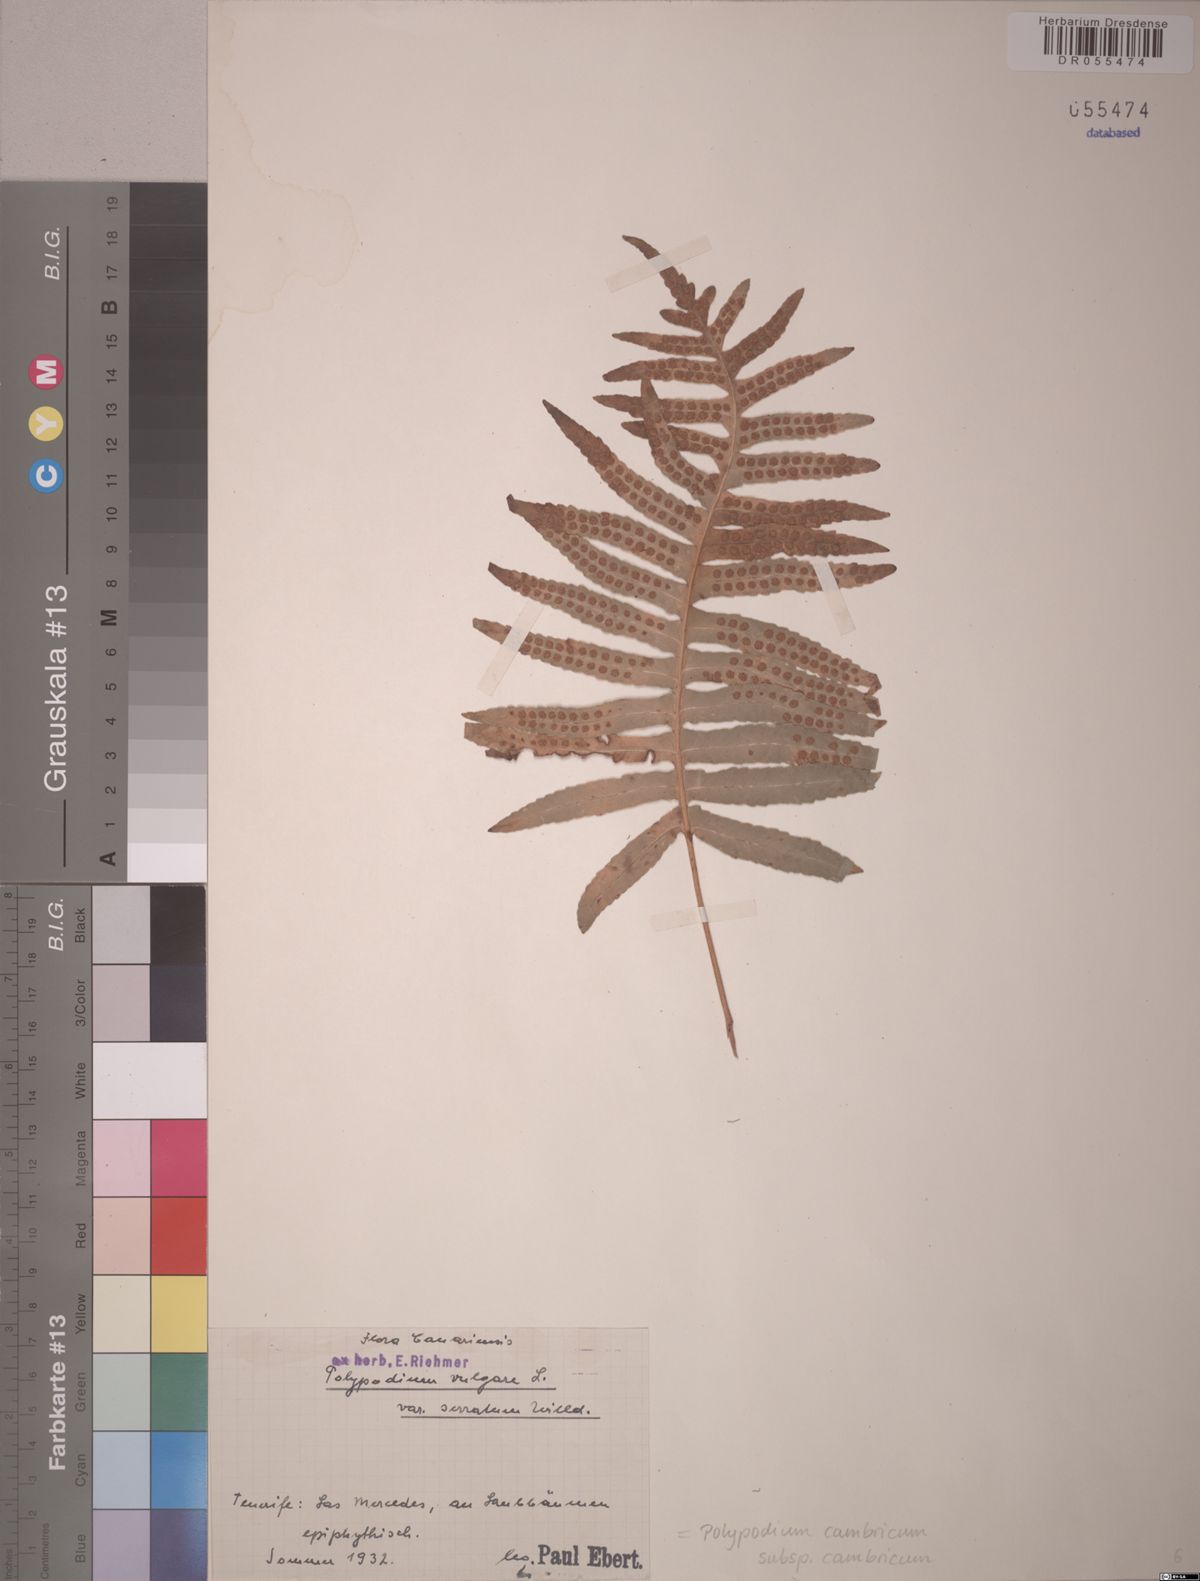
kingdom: Plantae
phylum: Tracheophyta
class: Polypodiopsida
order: Polypodiales
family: Polypodiaceae
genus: Polypodium
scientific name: Polypodium cambricum
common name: Southern polypody
